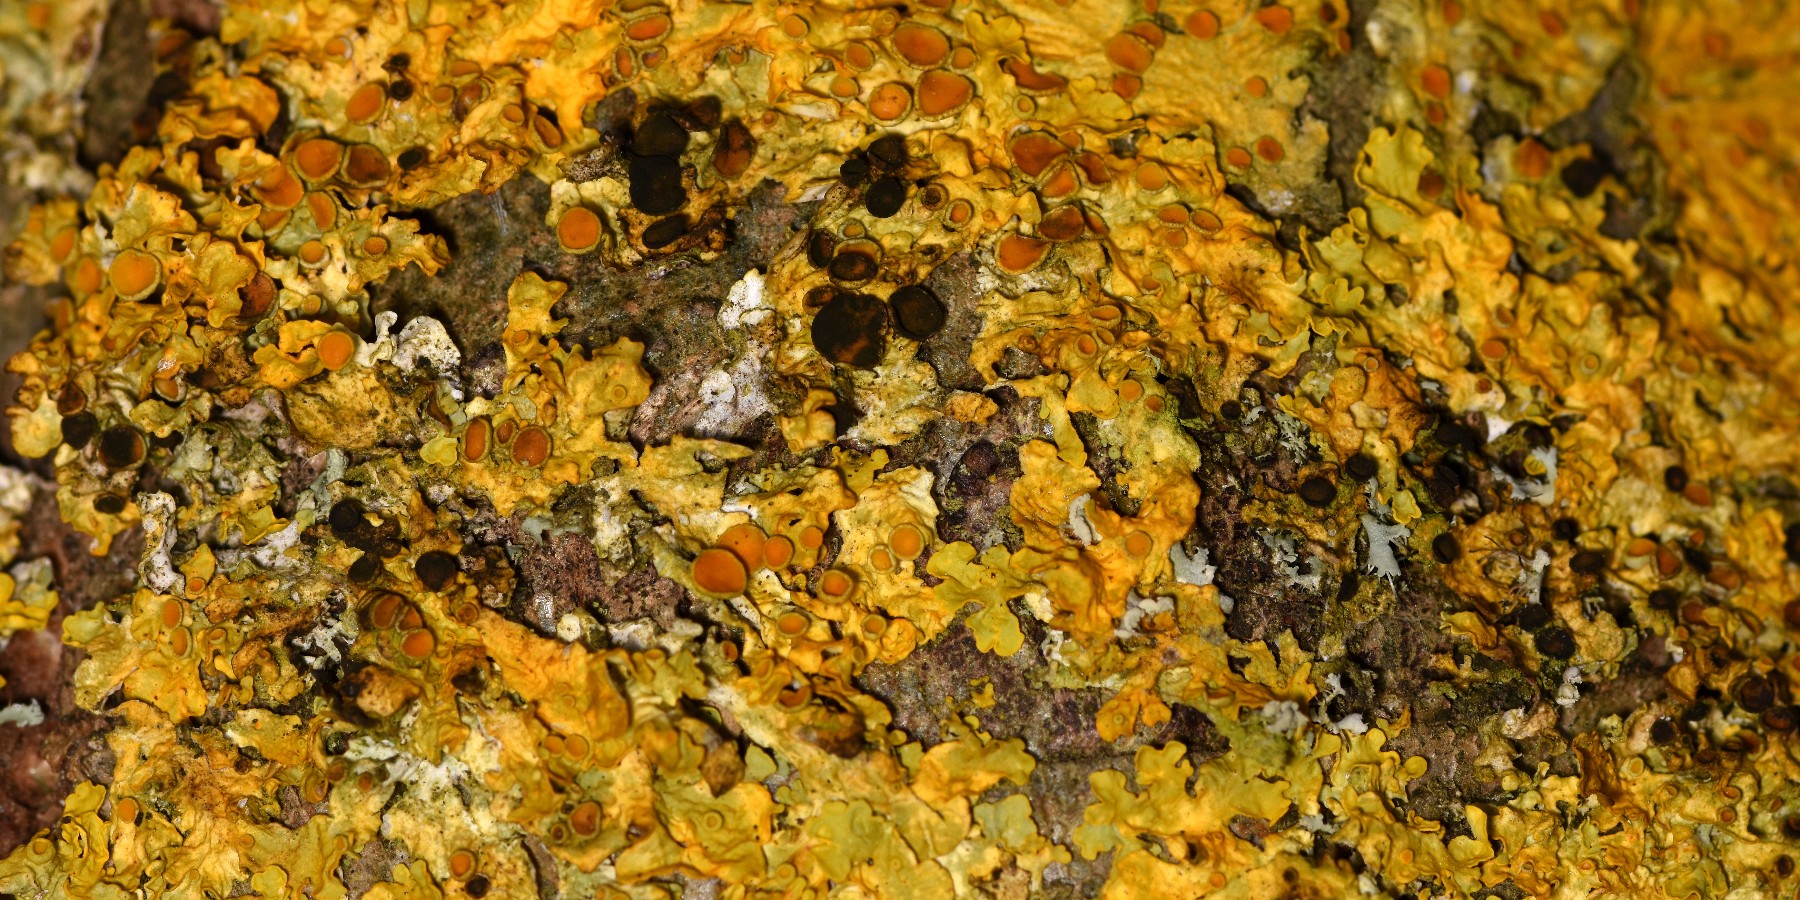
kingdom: Fungi
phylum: Ascomycota
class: Dothideomycetes
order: Mycosphaerellales
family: Teratosphaeriaceae
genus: Xanthoriicola
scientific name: Xanthoriicola physciae
